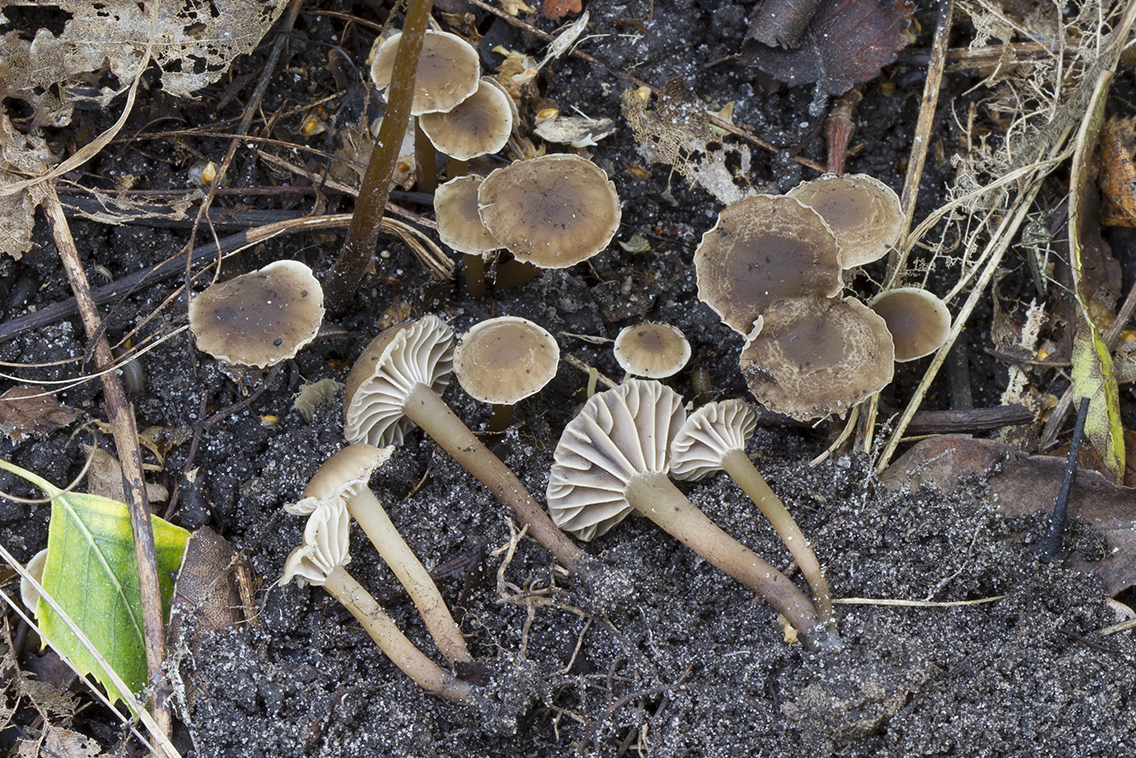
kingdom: Fungi
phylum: Basidiomycota
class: Agaricomycetes
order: Agaricales
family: Clavariaceae
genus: Hodophilus
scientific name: Hodophilus foetens
